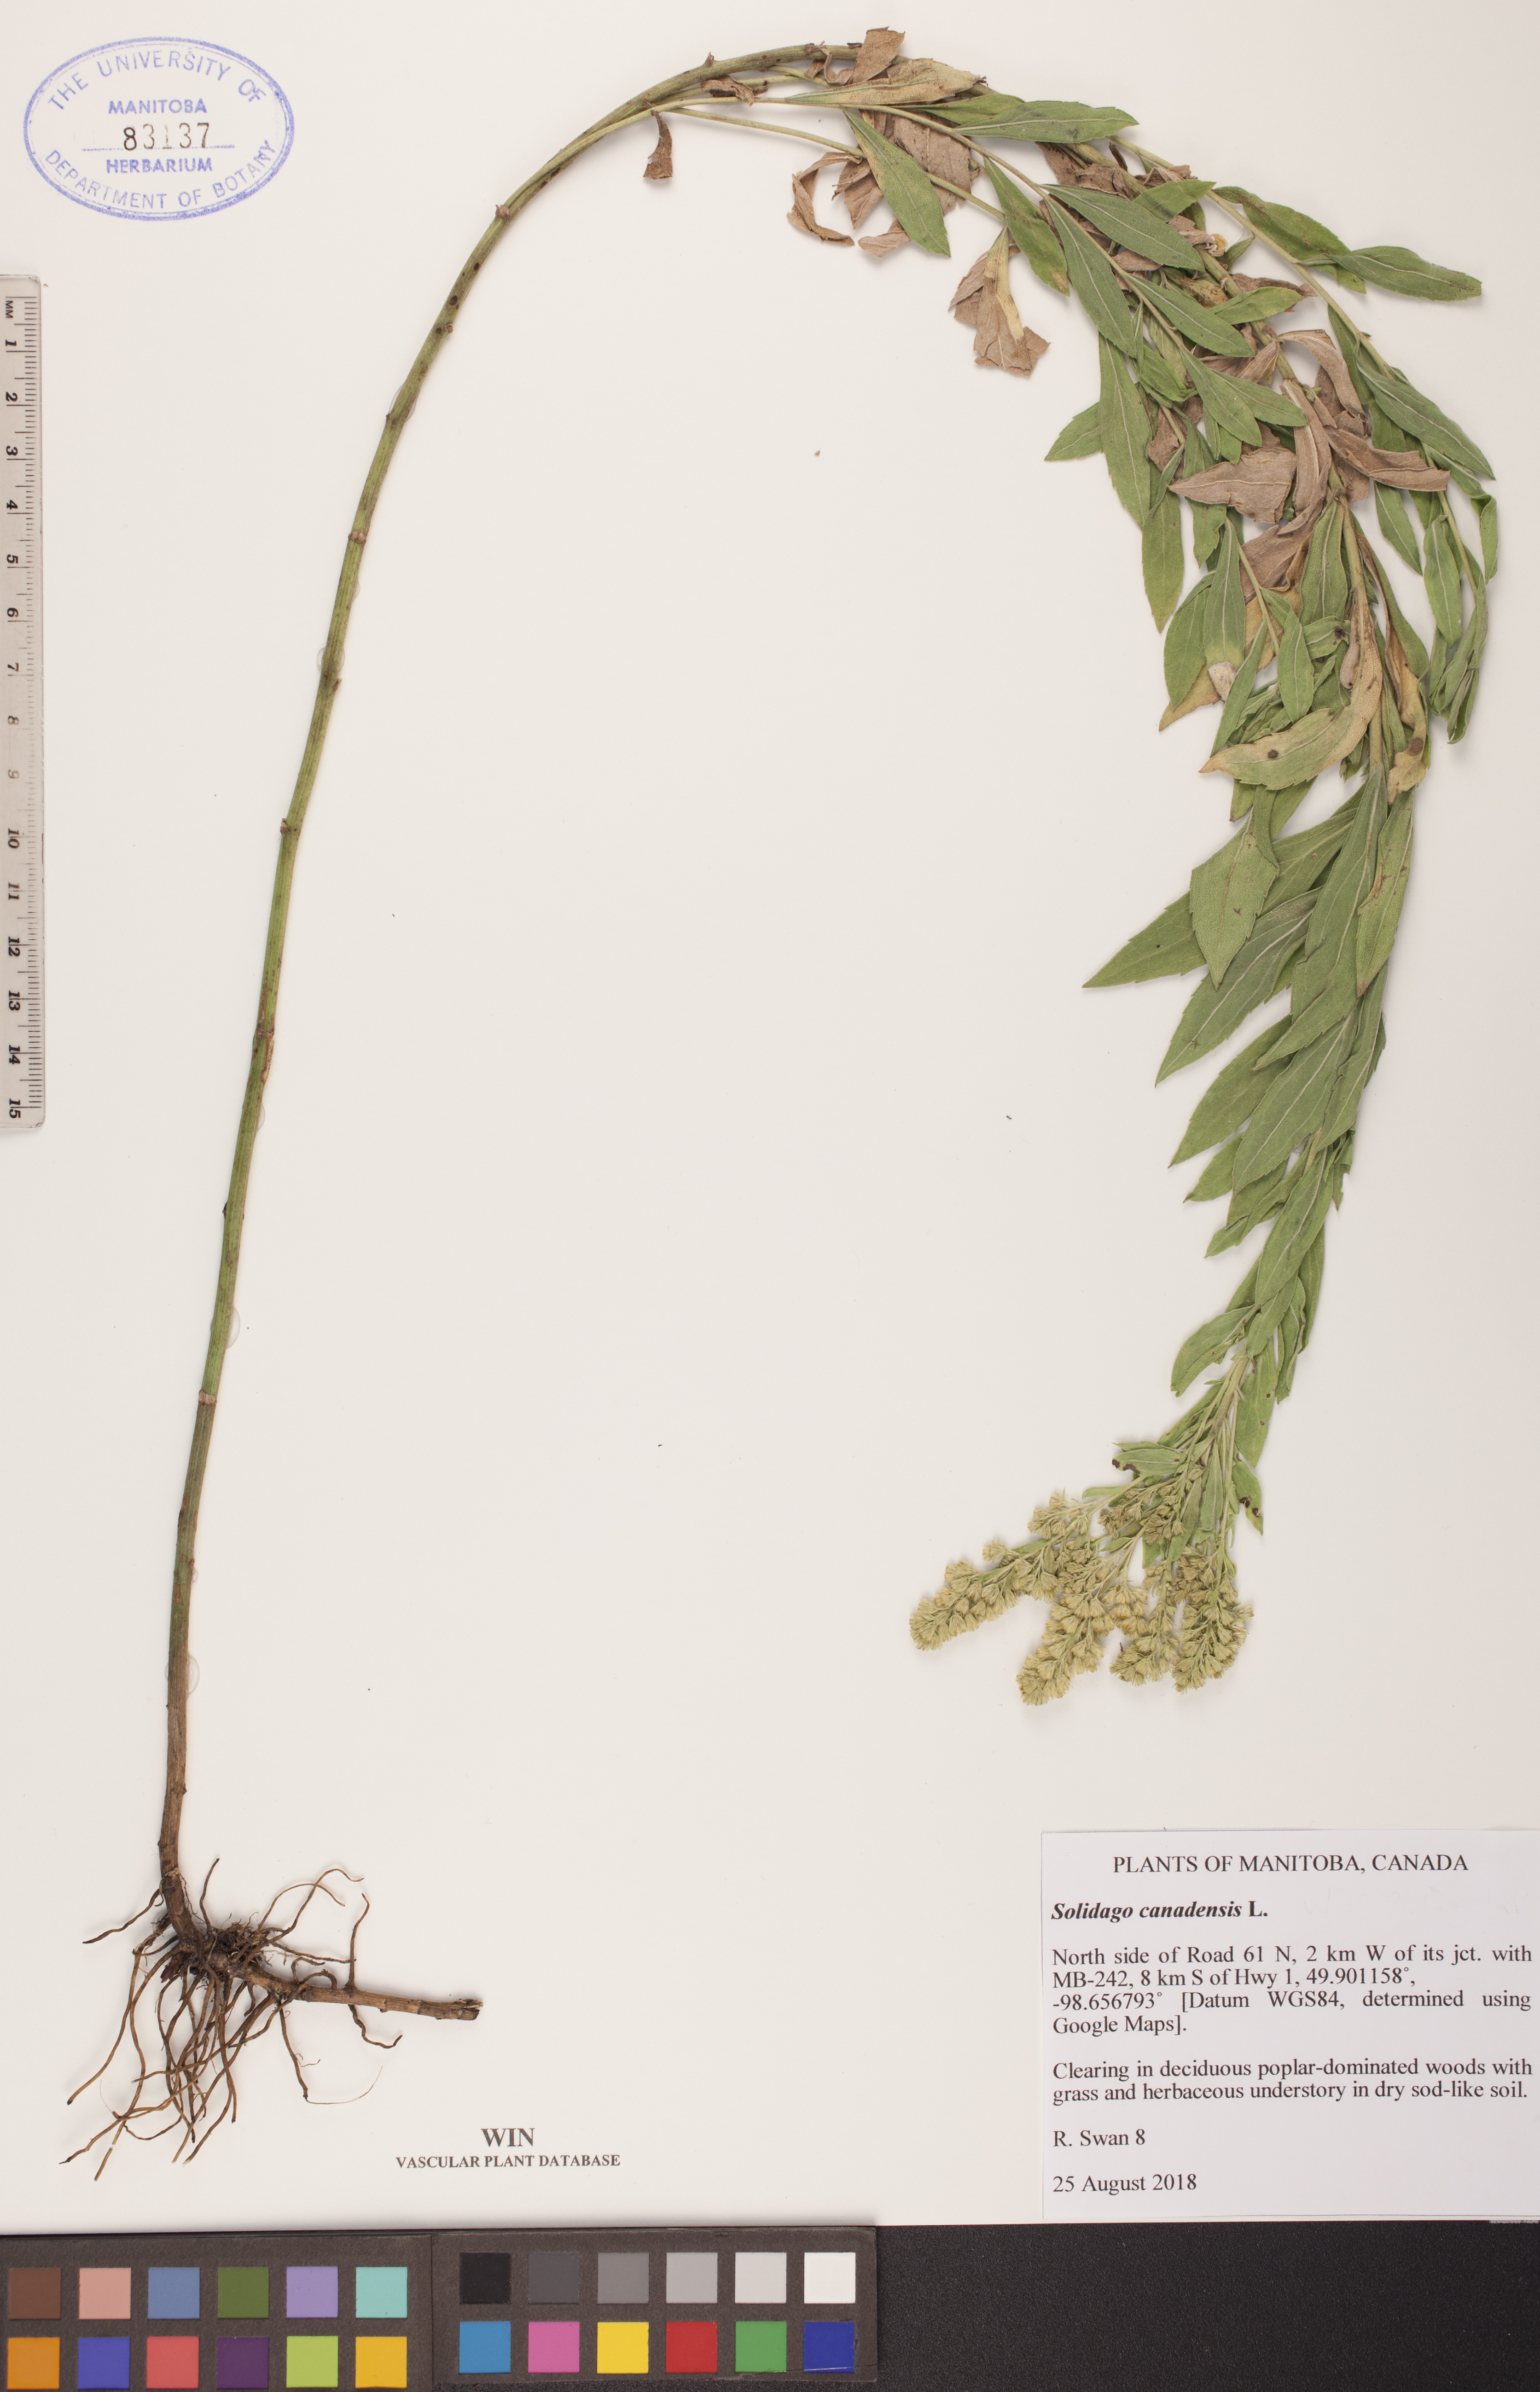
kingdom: Plantae
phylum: Tracheophyta
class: Magnoliopsida
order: Asterales
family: Asteraceae
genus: Solidago
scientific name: Solidago canadensis
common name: Canada goldenrod
